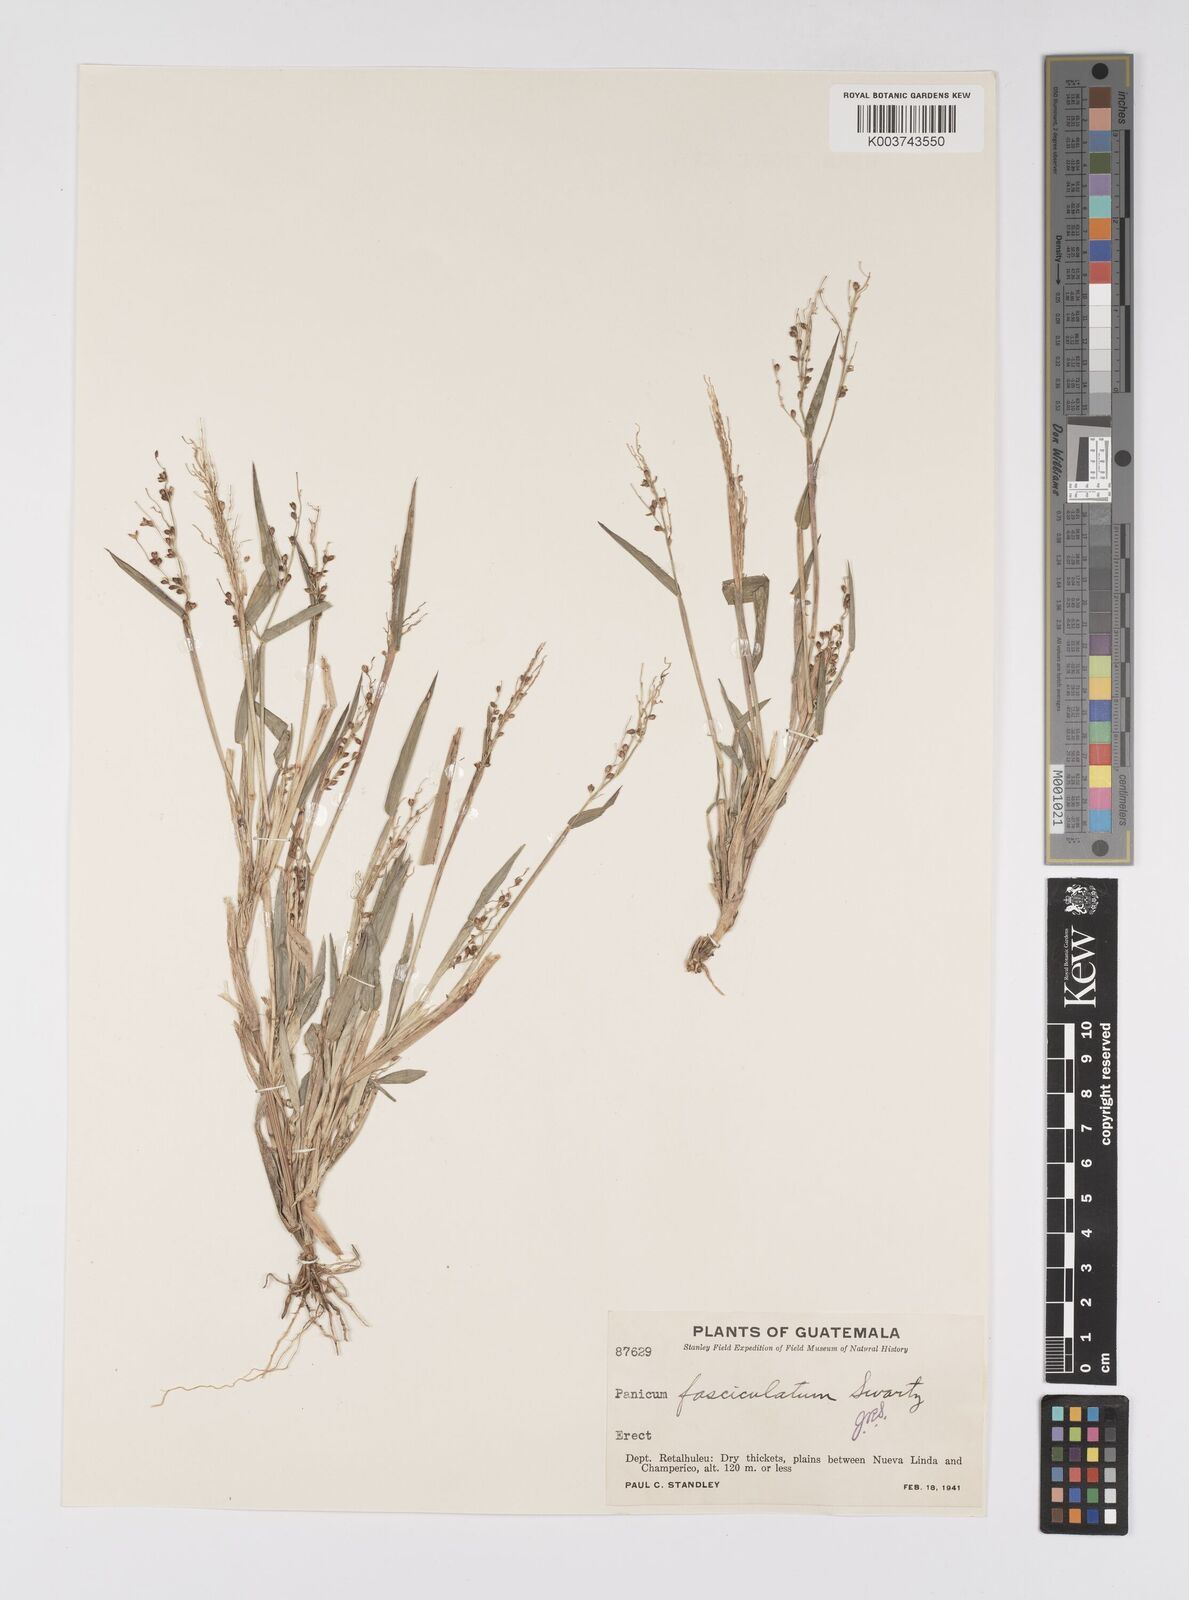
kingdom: Plantae
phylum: Tracheophyta
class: Liliopsida
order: Poales
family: Poaceae
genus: Urochloa
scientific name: Urochloa fusca
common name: Browntop signal grass
